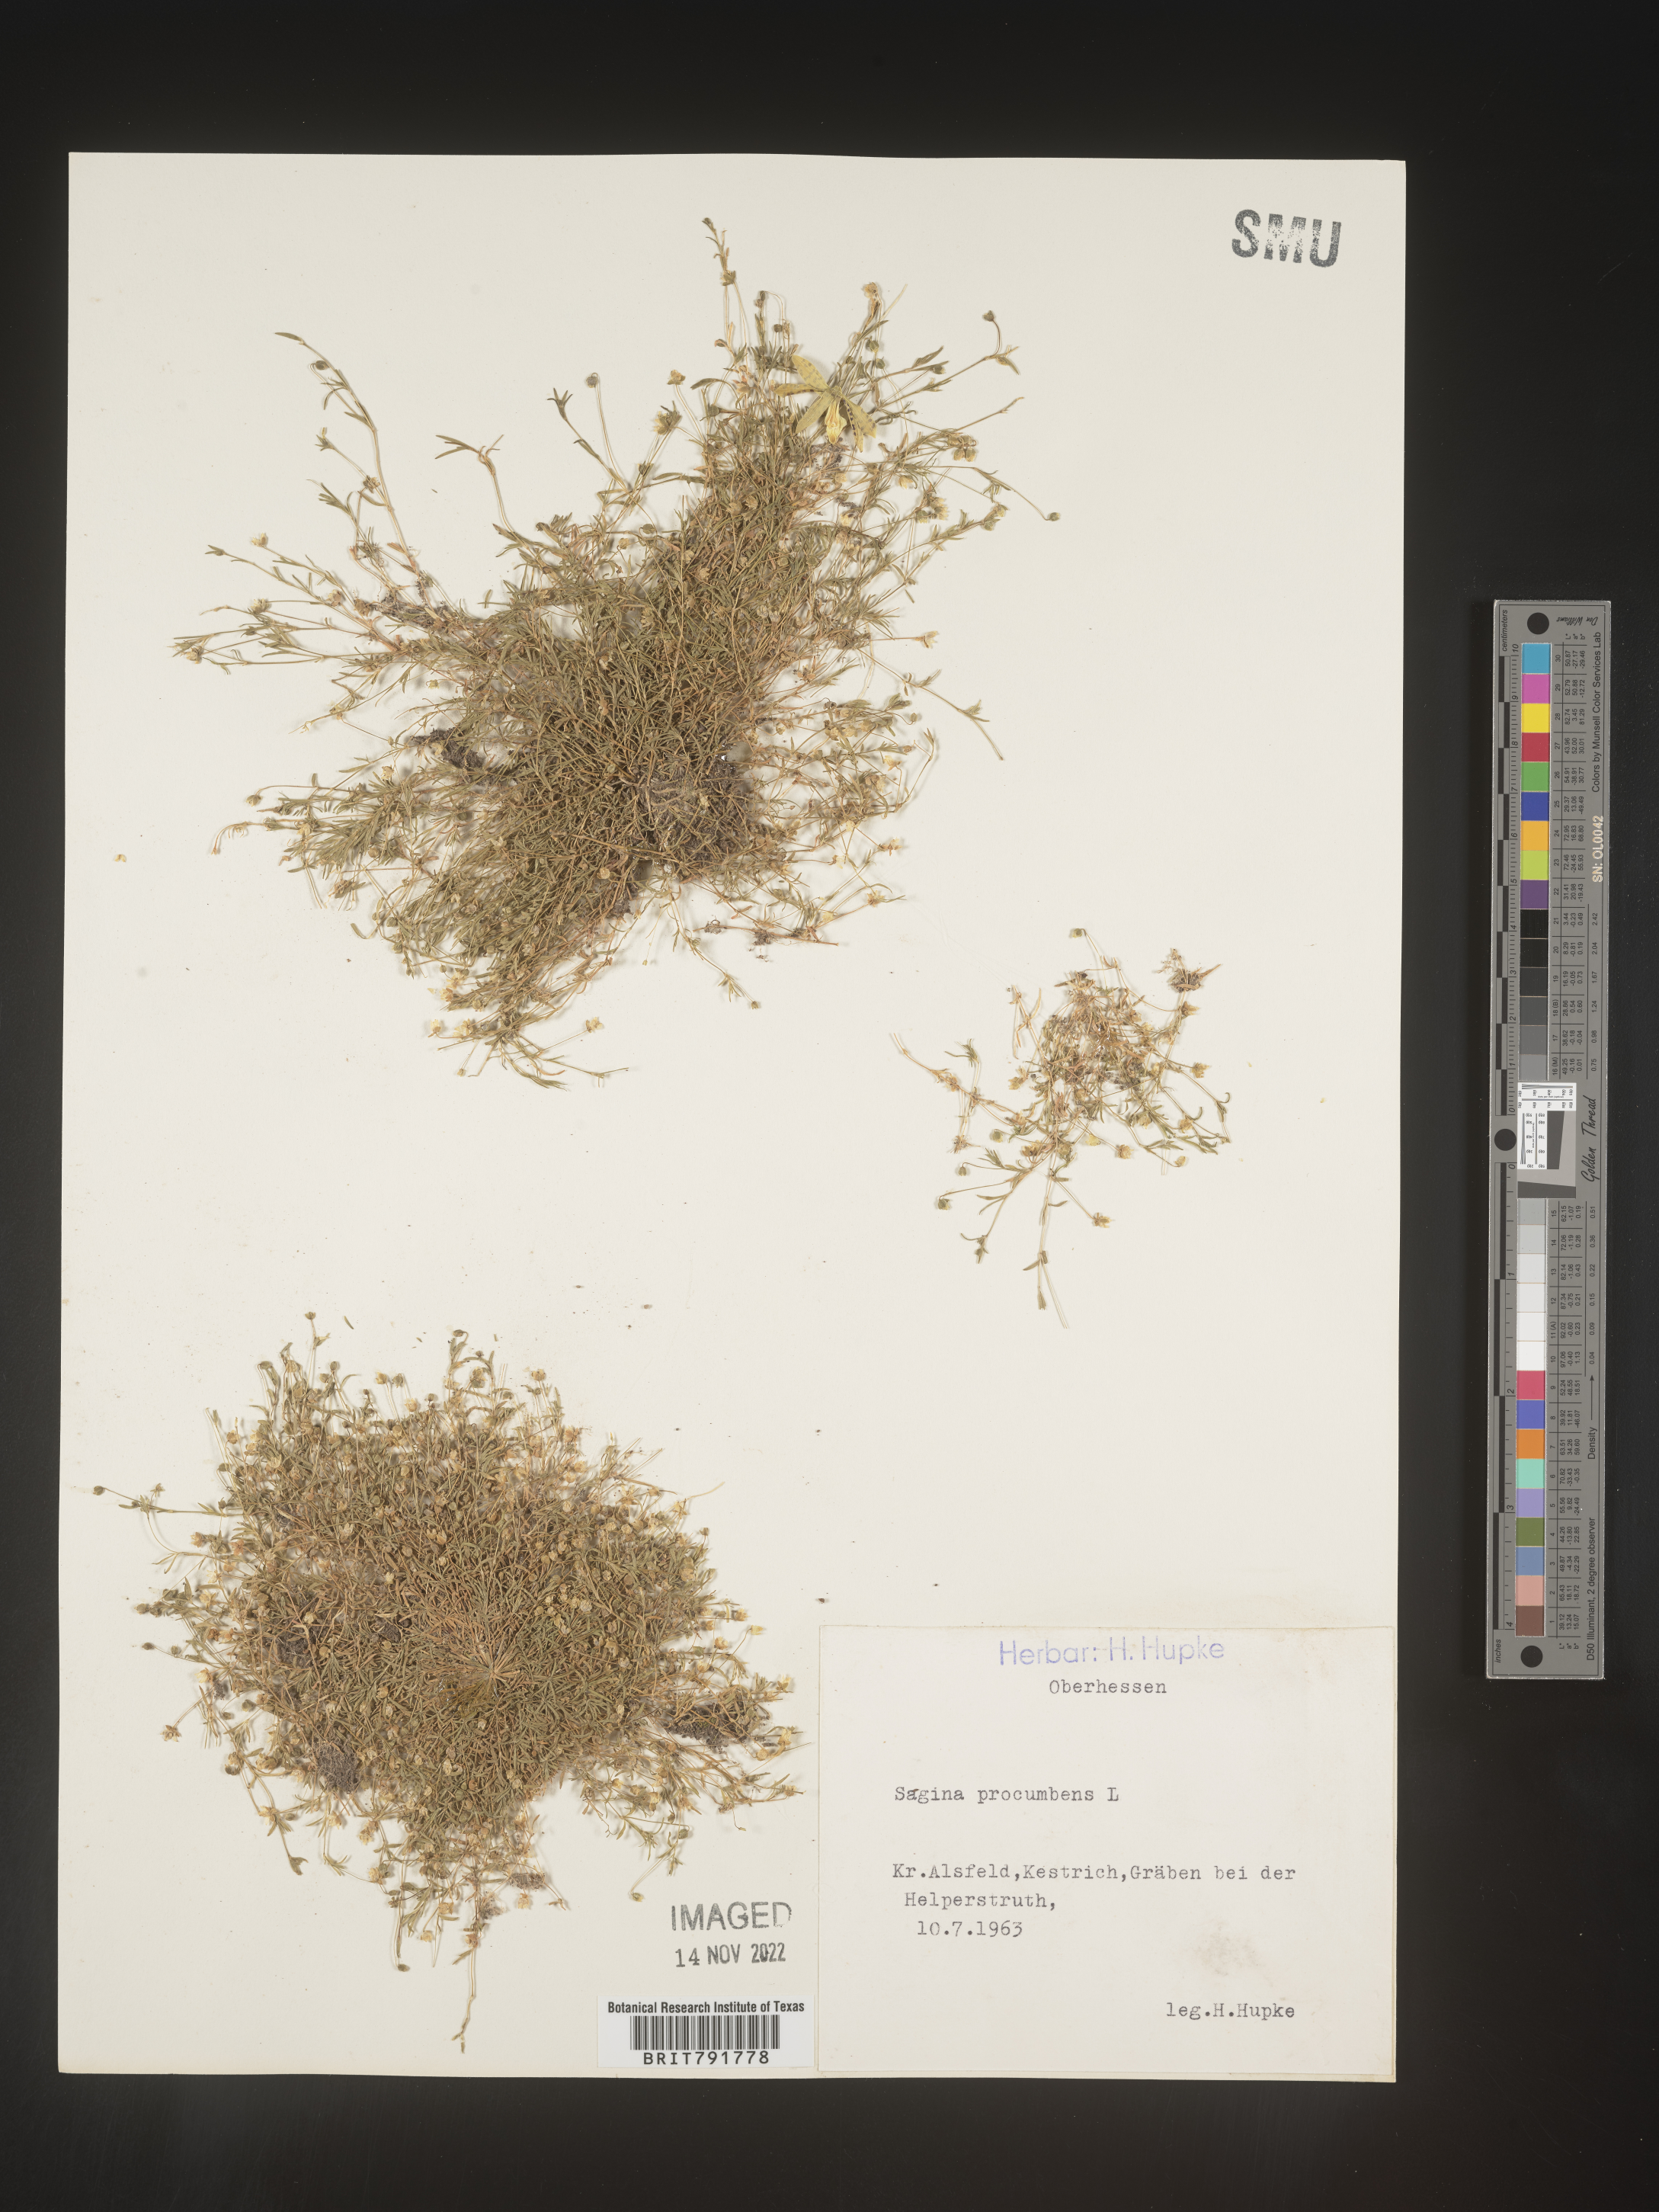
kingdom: Plantae
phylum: Tracheophyta
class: Magnoliopsida
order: Caryophyllales
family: Caryophyllaceae
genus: Sagina
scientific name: Sagina
